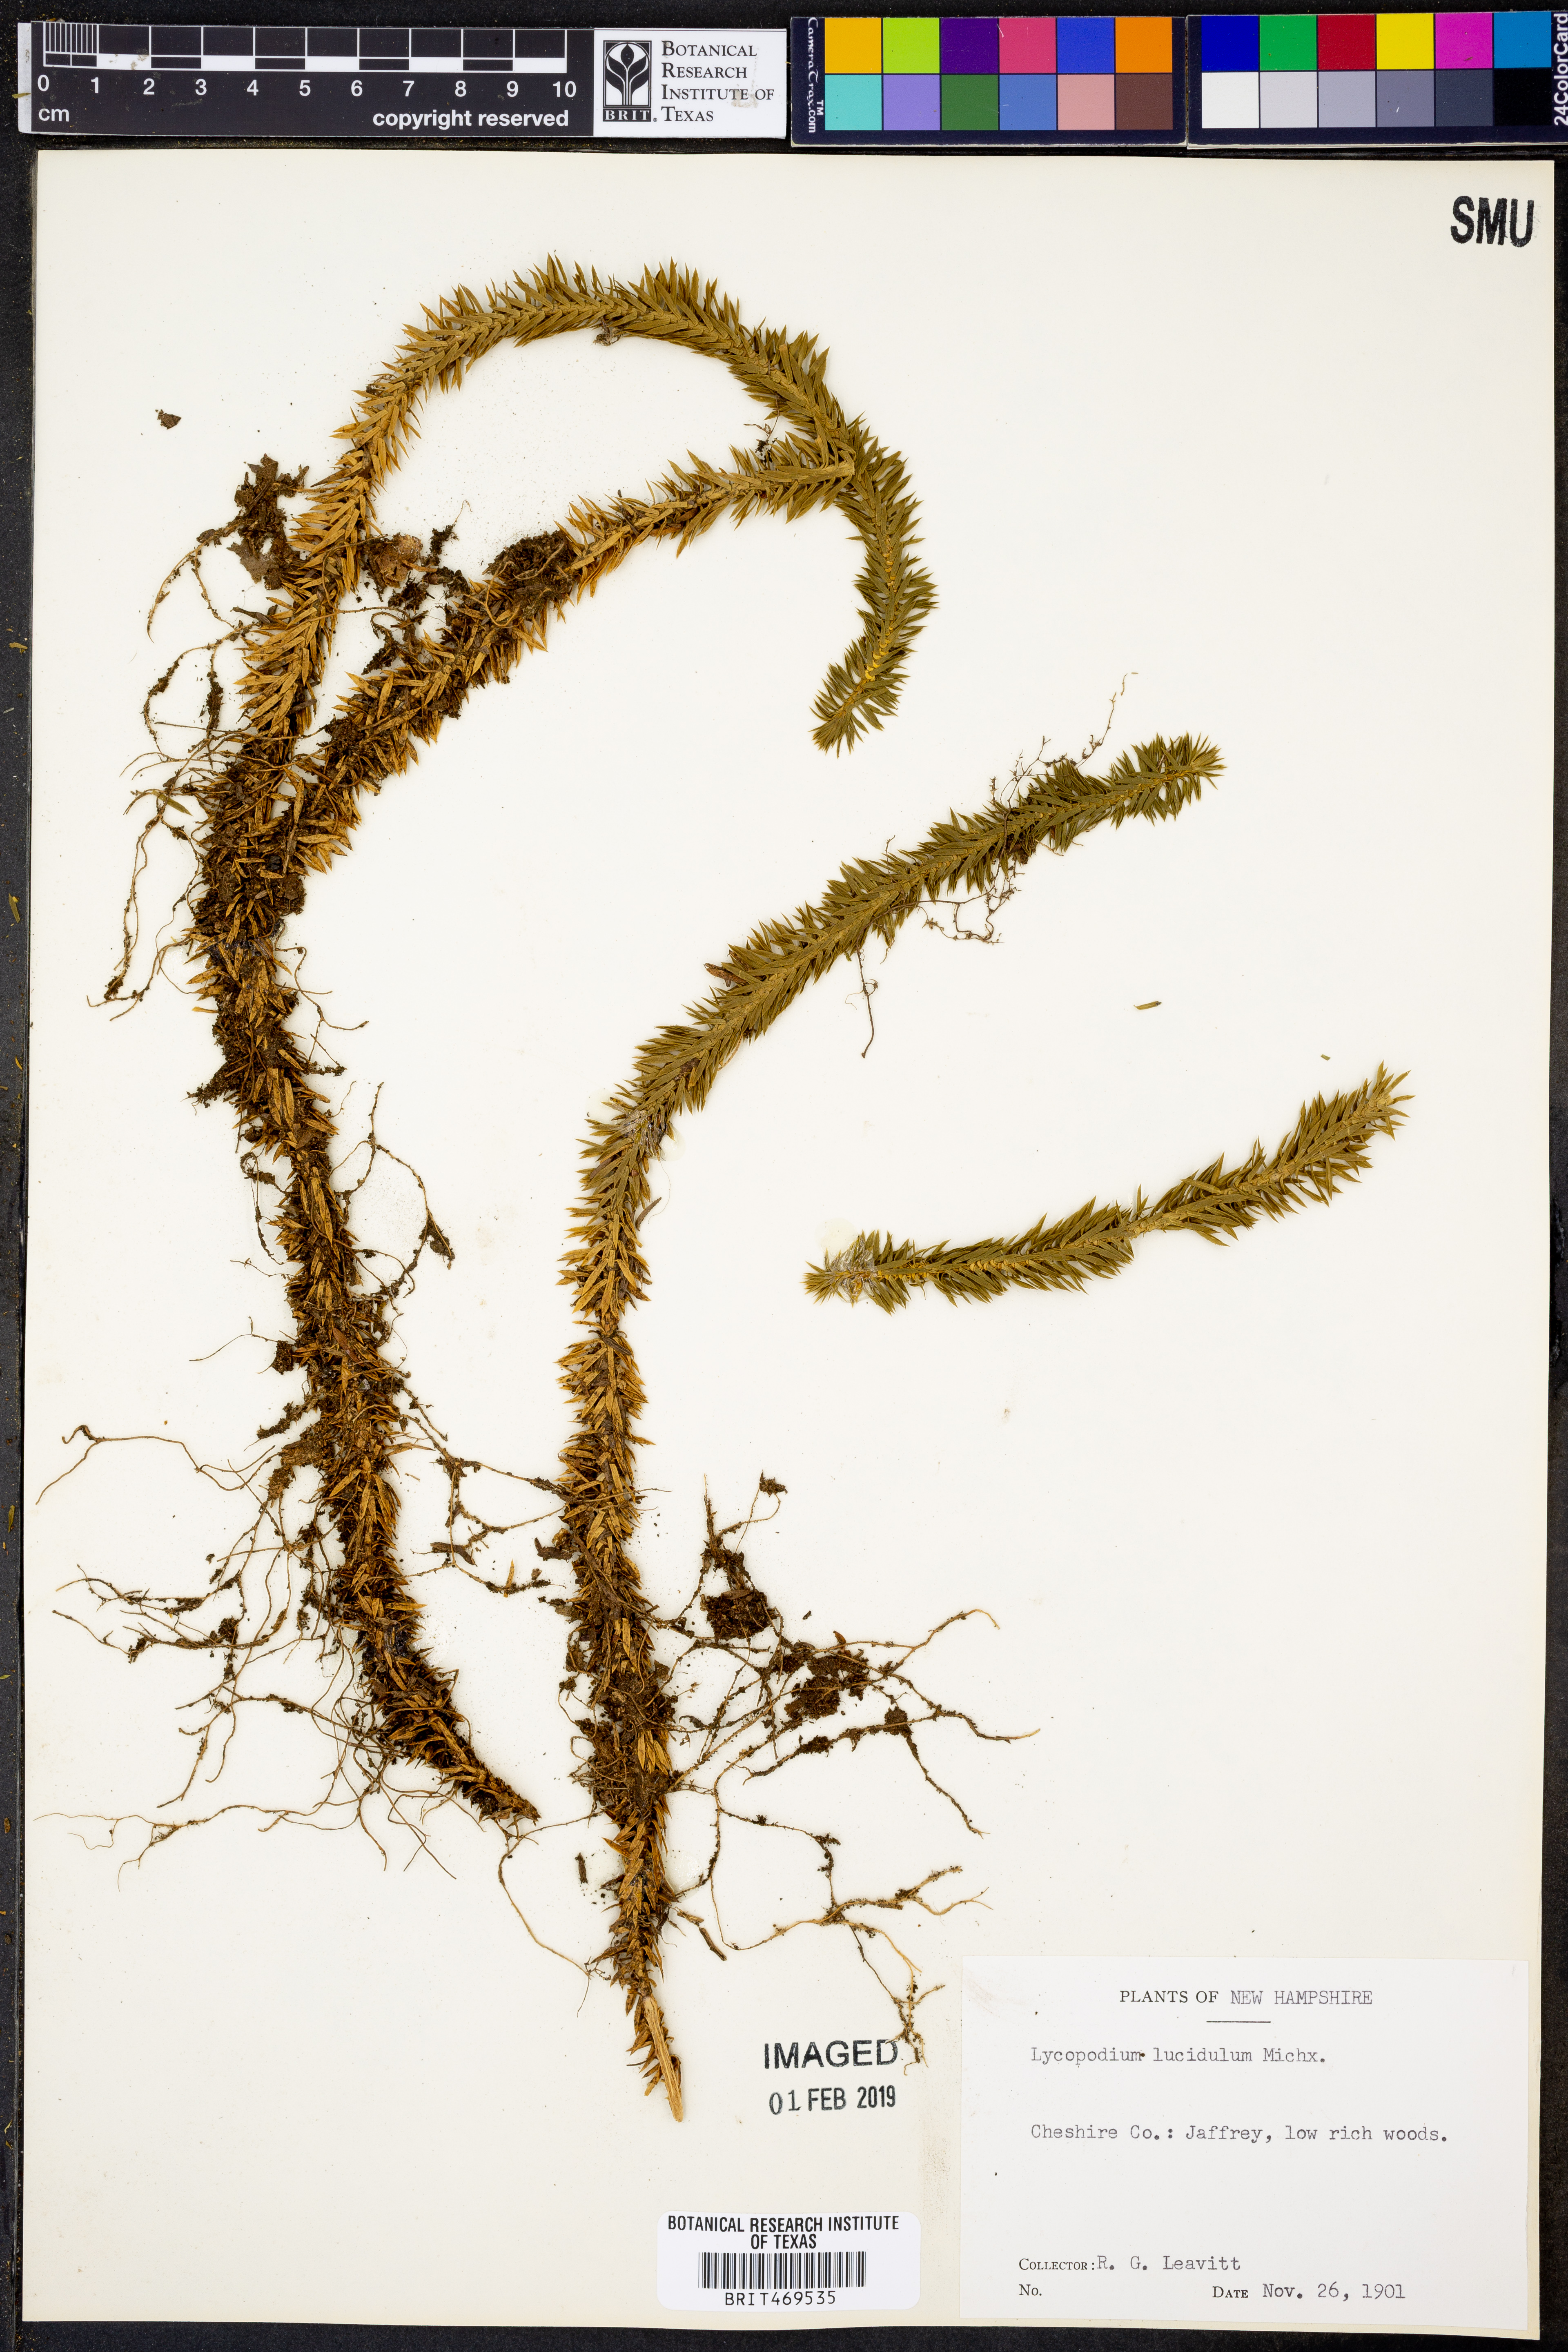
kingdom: Plantae
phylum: Tracheophyta
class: Lycopodiopsida
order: Lycopodiales
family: Lycopodiaceae
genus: Huperzia
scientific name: Huperzia lucidula
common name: Shining clubmoss
